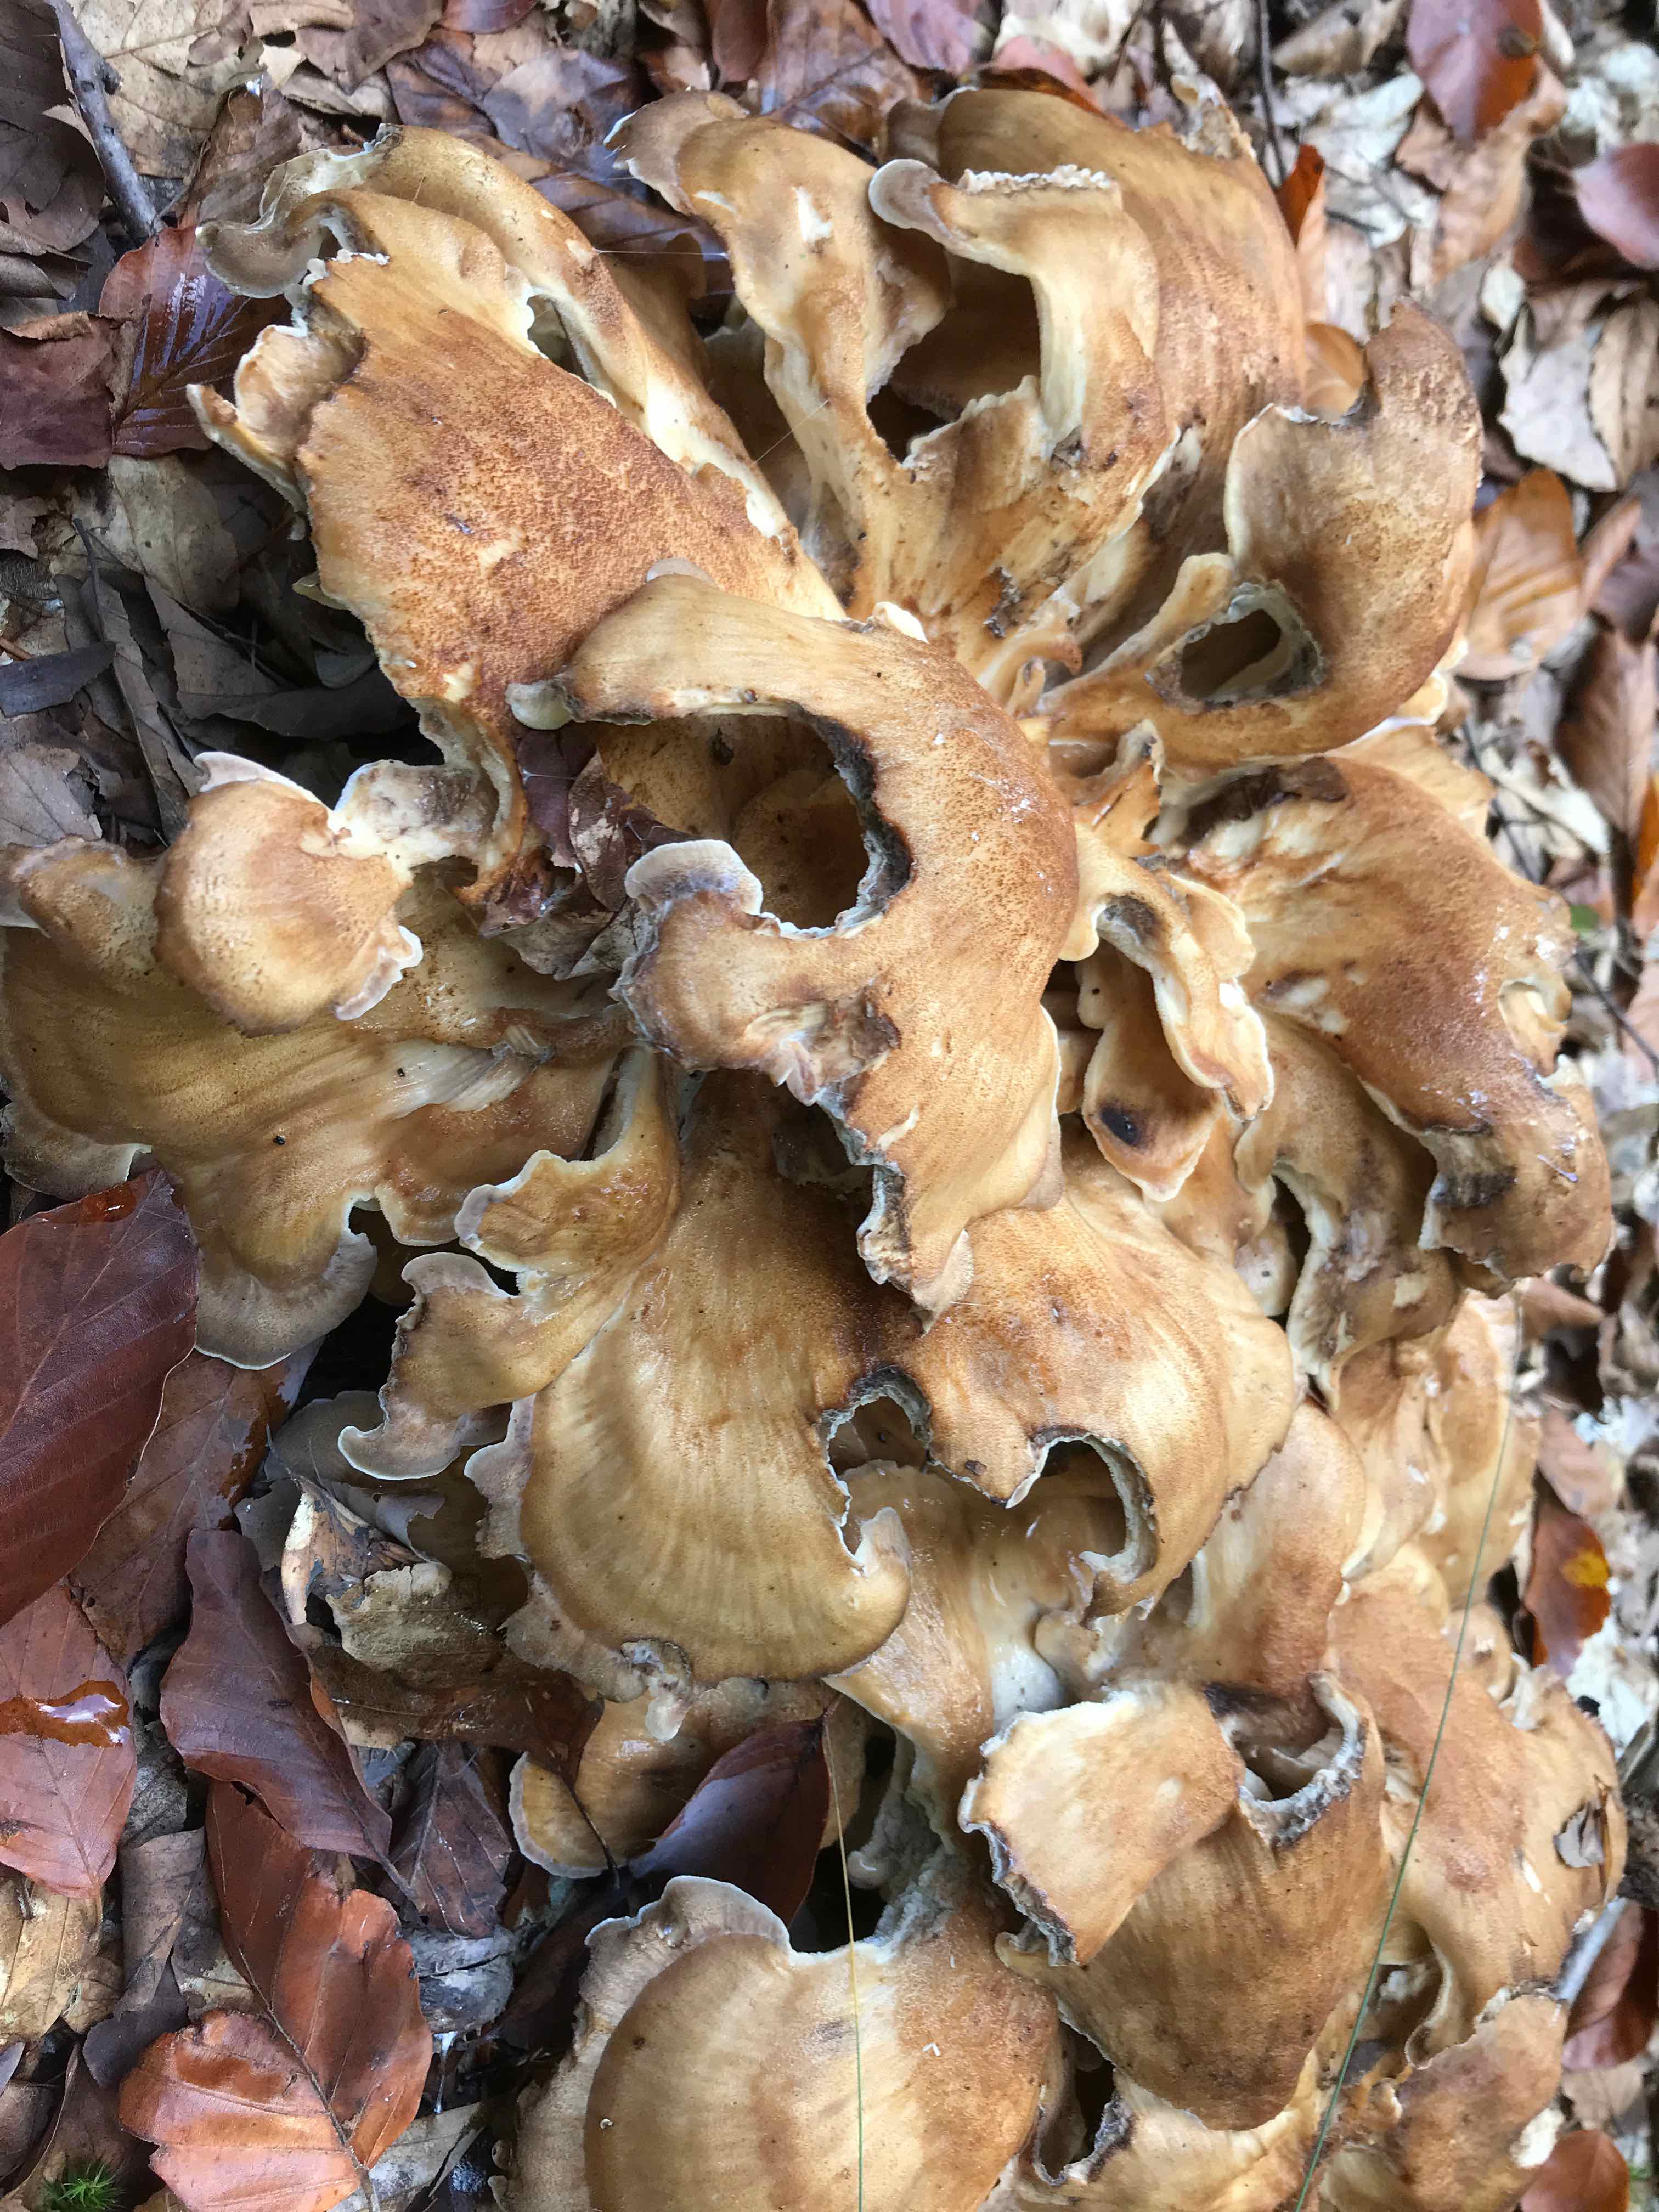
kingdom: Fungi
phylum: Basidiomycota
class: Agaricomycetes
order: Polyporales
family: Meripilaceae
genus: Meripilus
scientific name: Meripilus giganteus
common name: kæmpeporesvamp
